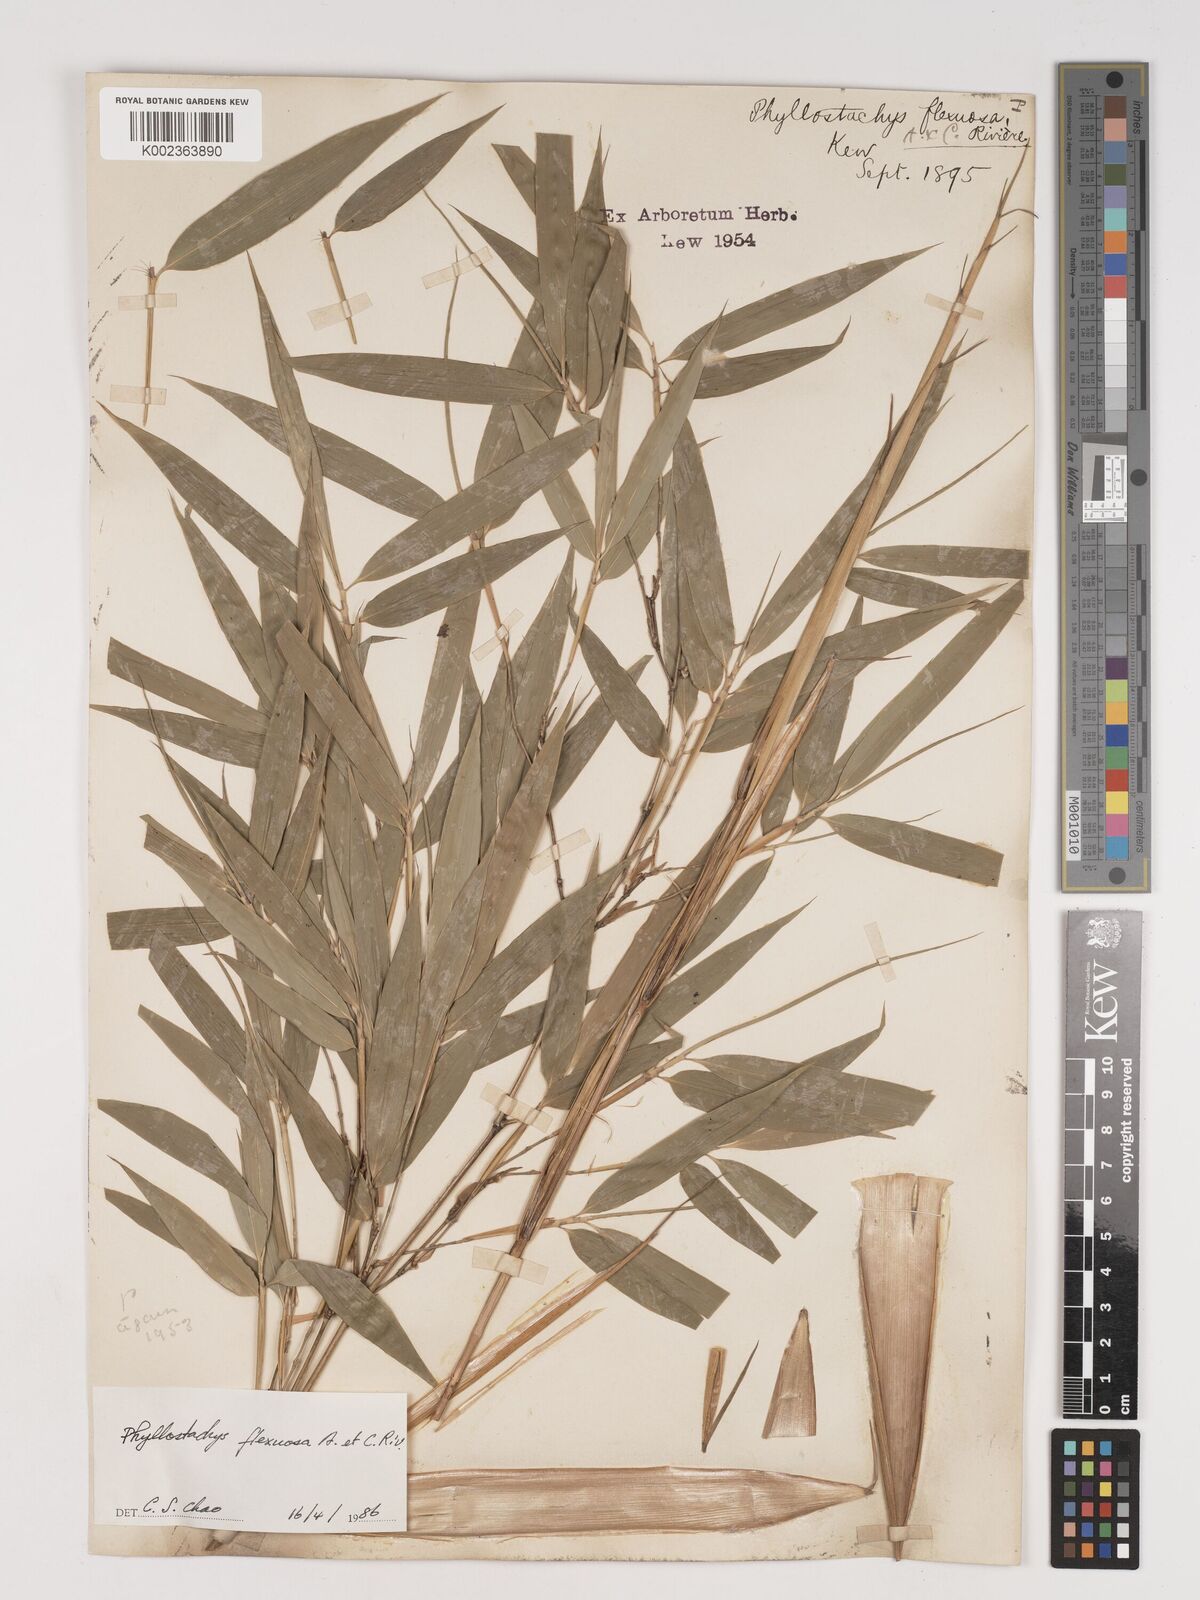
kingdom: Plantae
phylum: Tracheophyta
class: Liliopsida
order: Poales
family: Poaceae
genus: Phyllostachys
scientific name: Phyllostachys flexuosa
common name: Drooping timber bamboo
